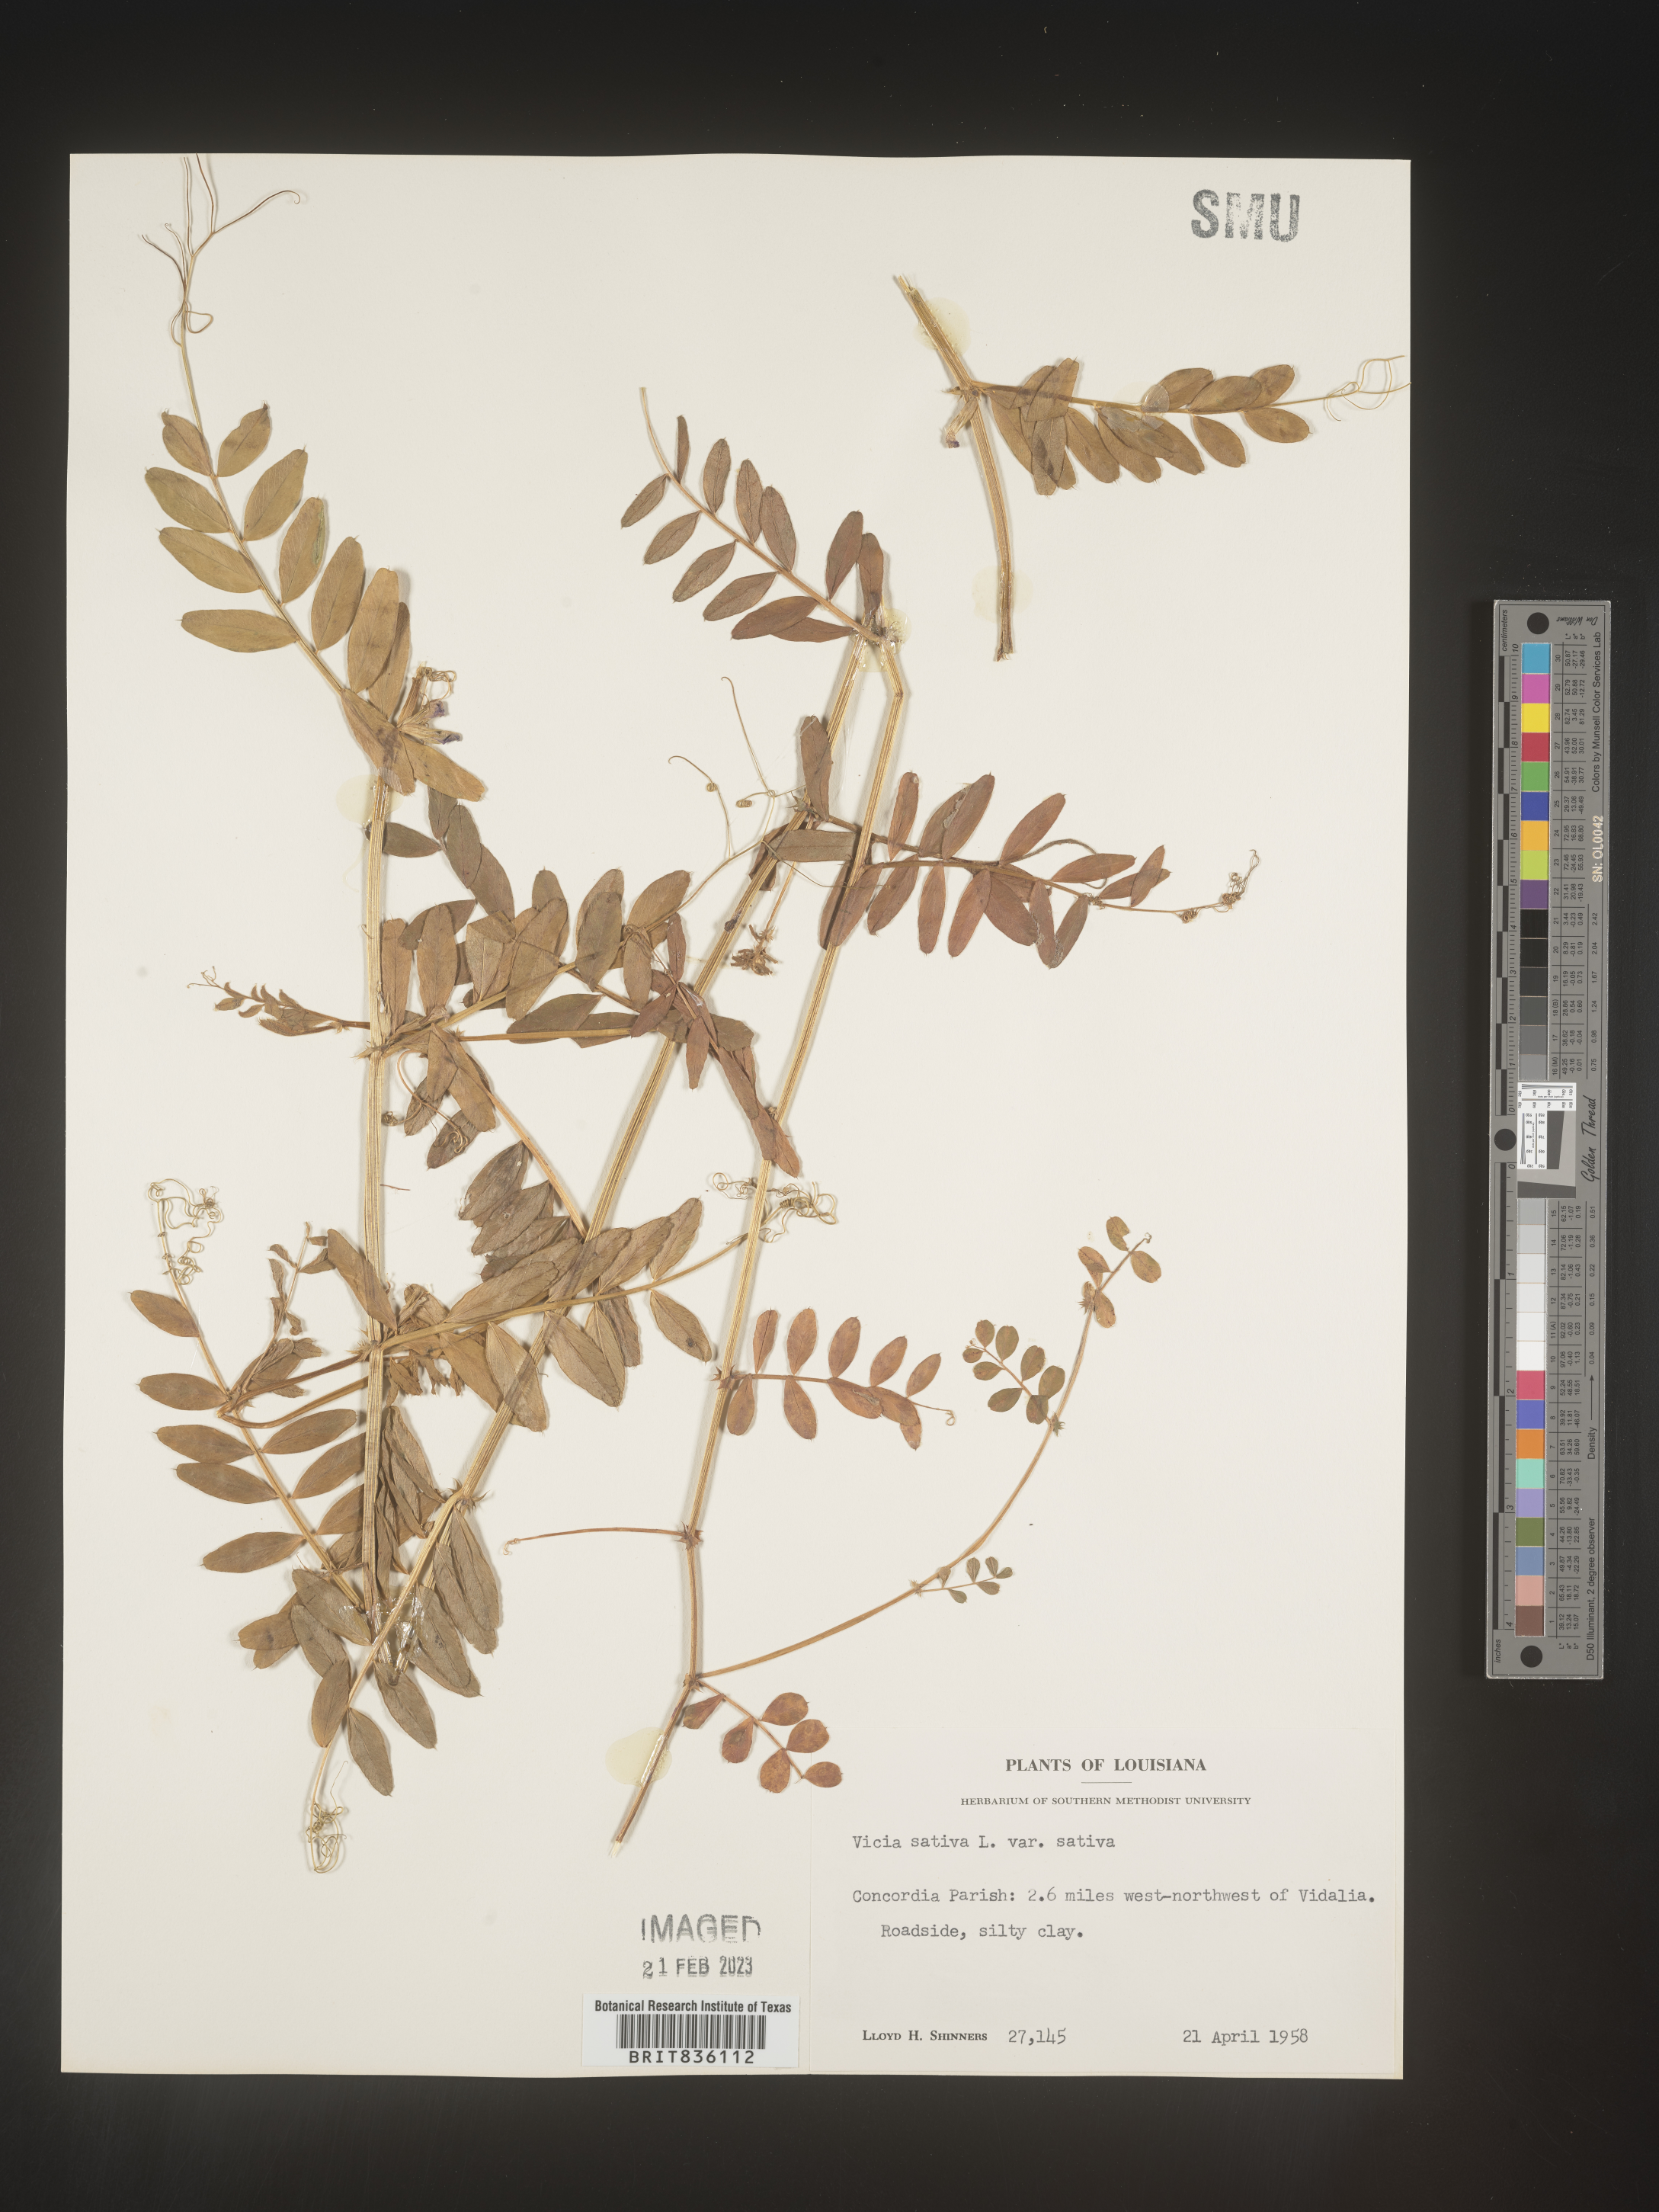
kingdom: Plantae
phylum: Tracheophyta
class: Magnoliopsida
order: Fabales
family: Fabaceae
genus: Vicia
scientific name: Vicia sativa
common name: Garden vetch
